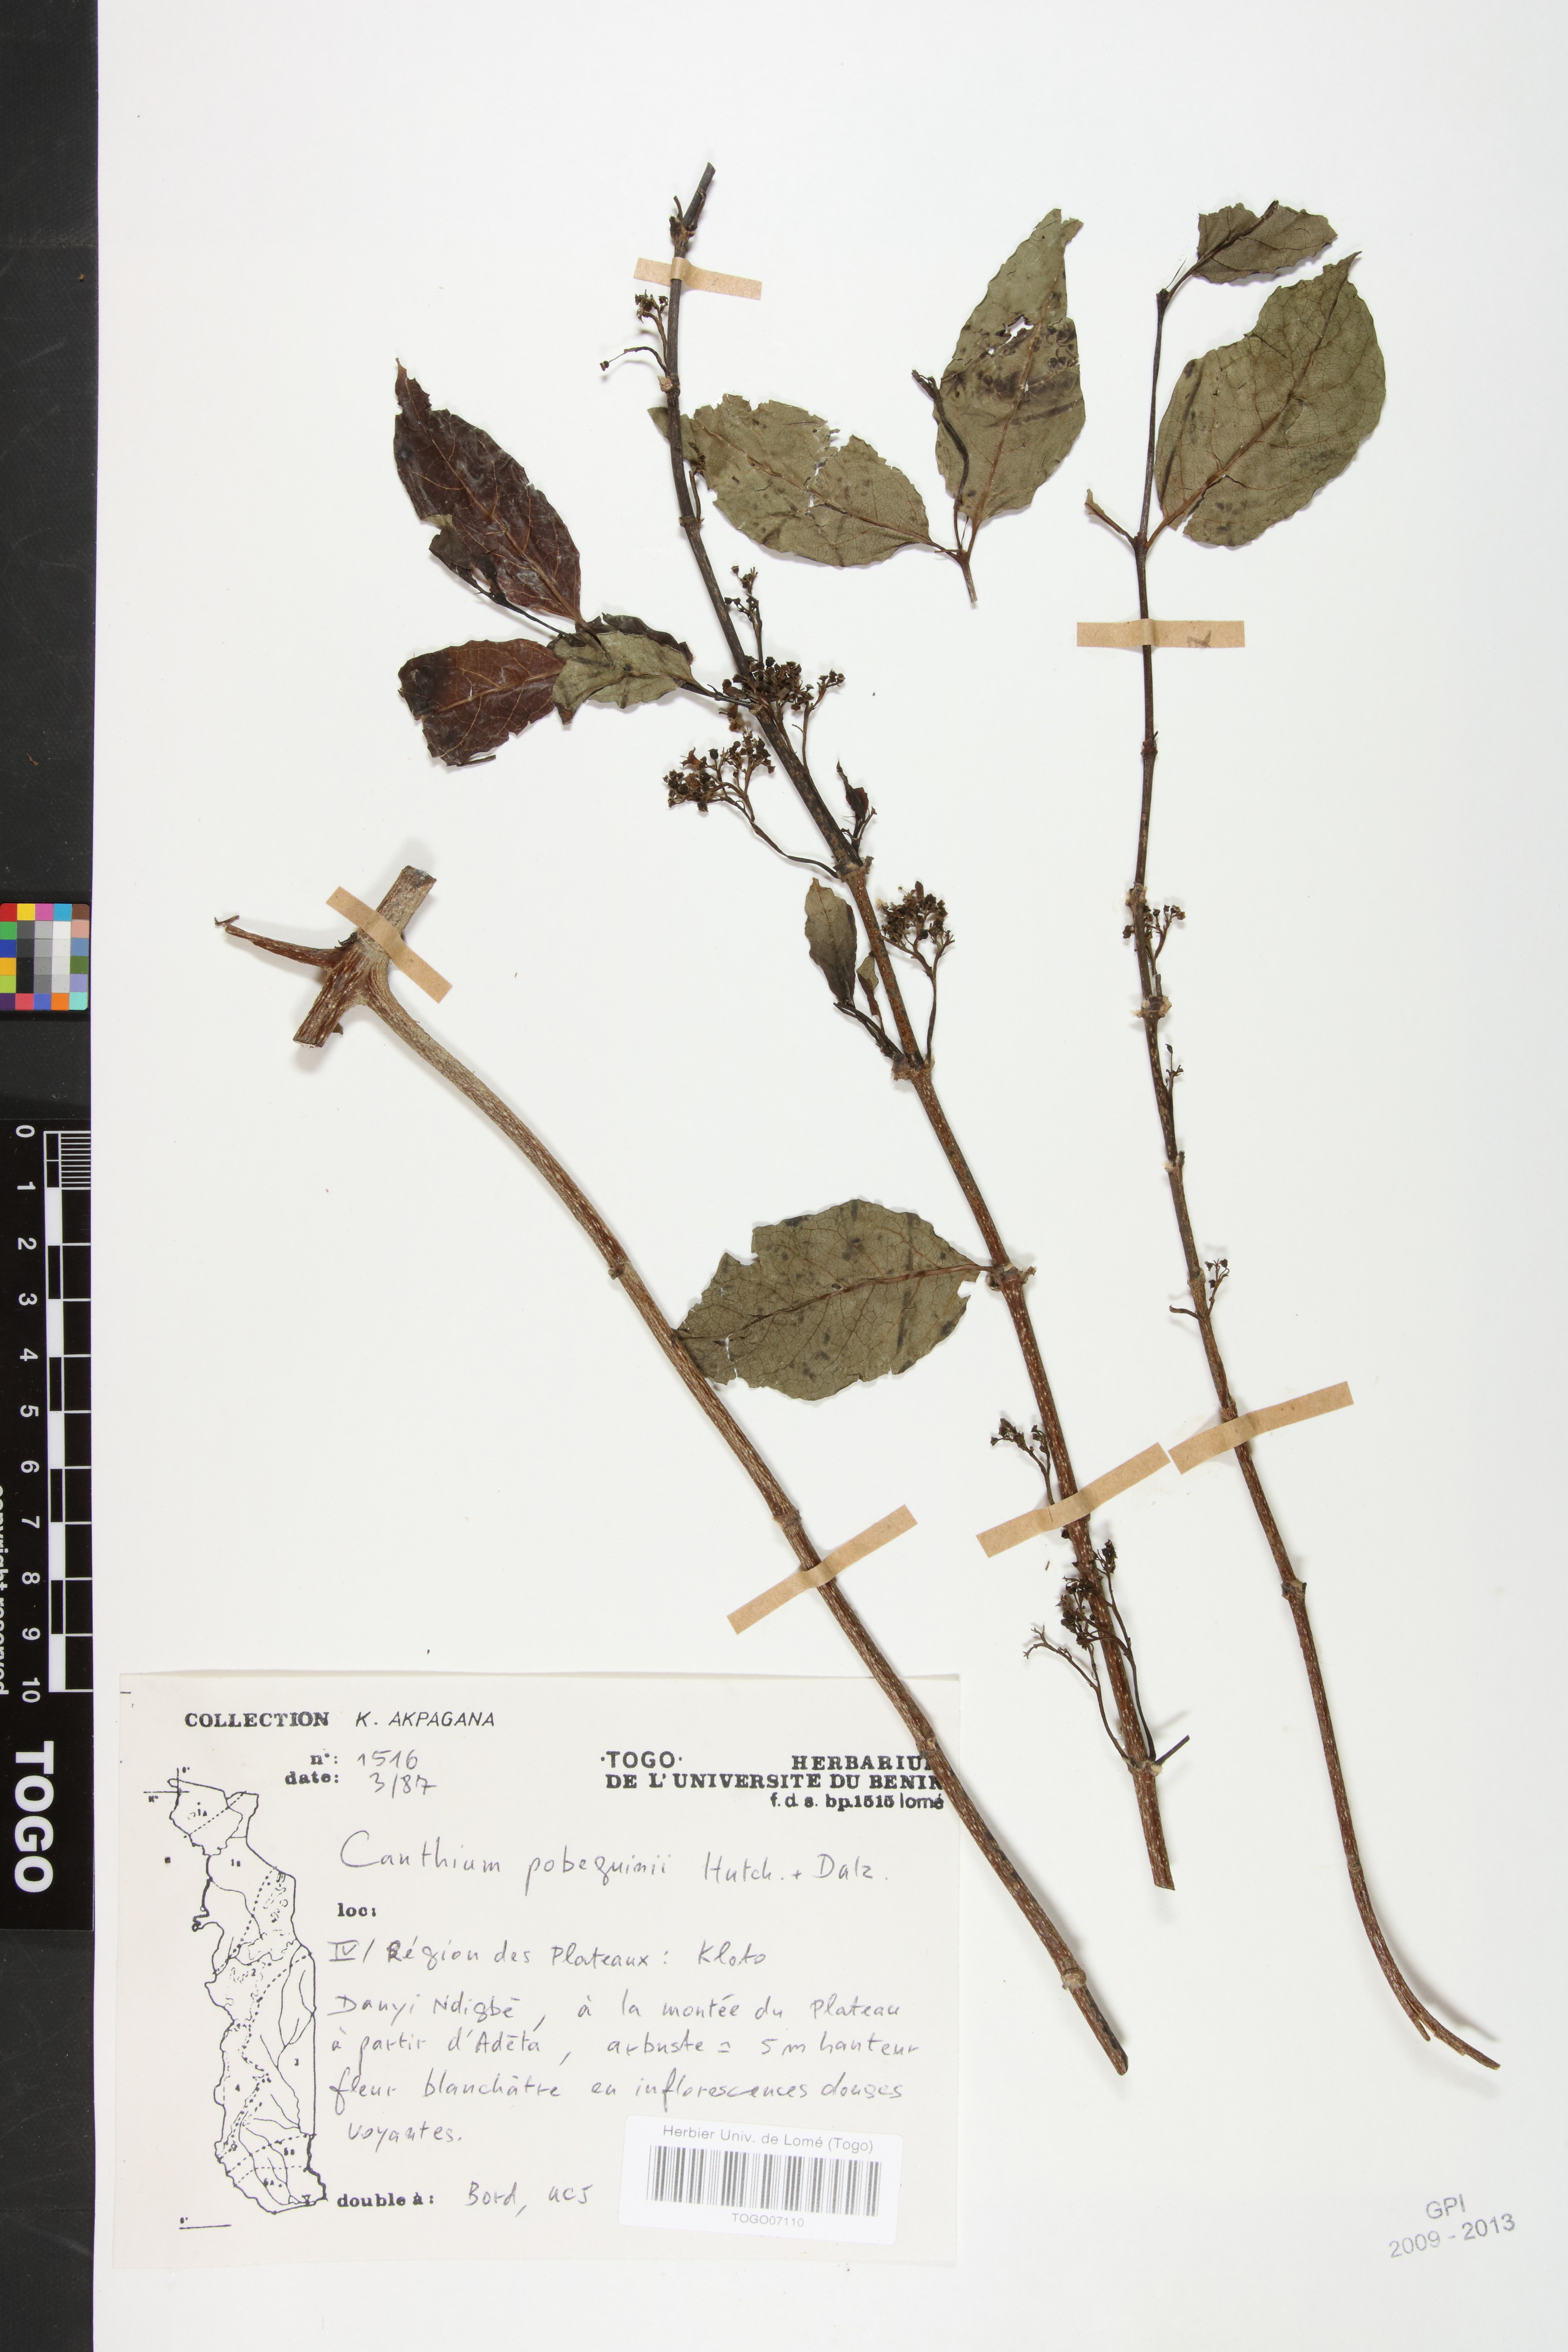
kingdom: Plantae
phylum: Tracheophyta
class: Magnoliopsida
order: Gentianales
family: Rubiaceae
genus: Multidentia
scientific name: Multidentia pobeguinii
